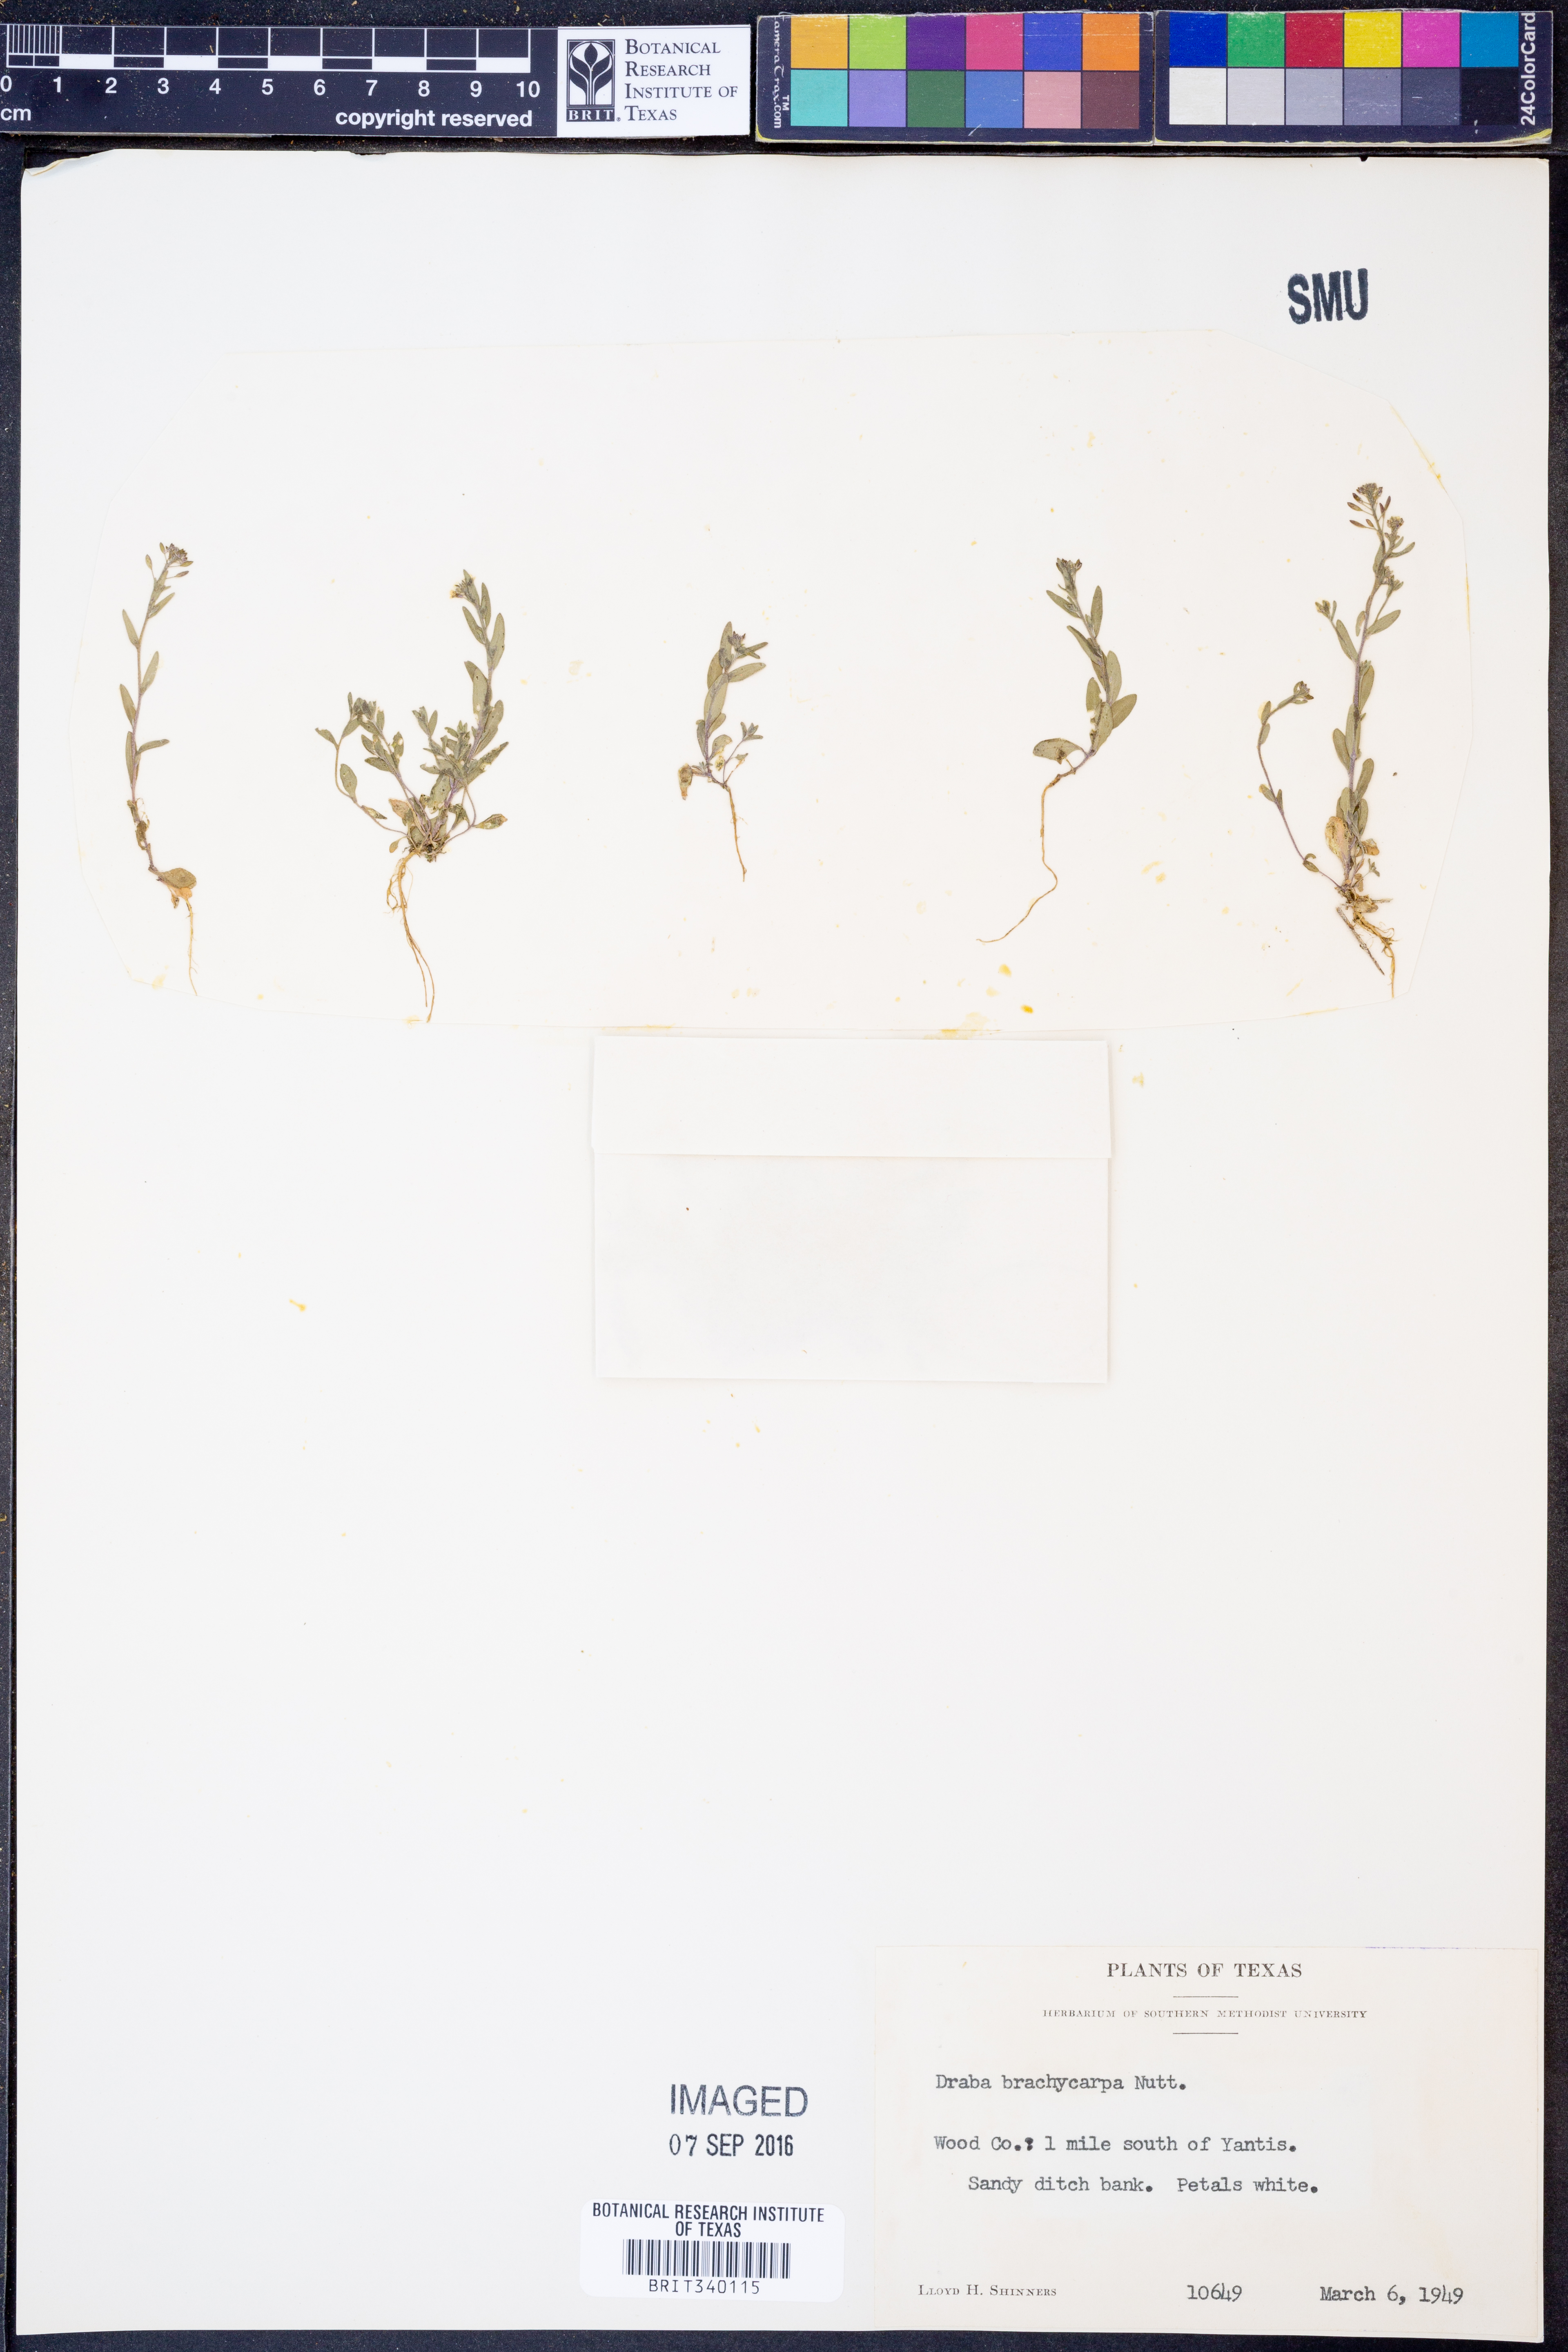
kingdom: Plantae
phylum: Tracheophyta
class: Magnoliopsida
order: Brassicales
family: Brassicaceae
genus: Abdra
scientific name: Abdra brachycarpa
